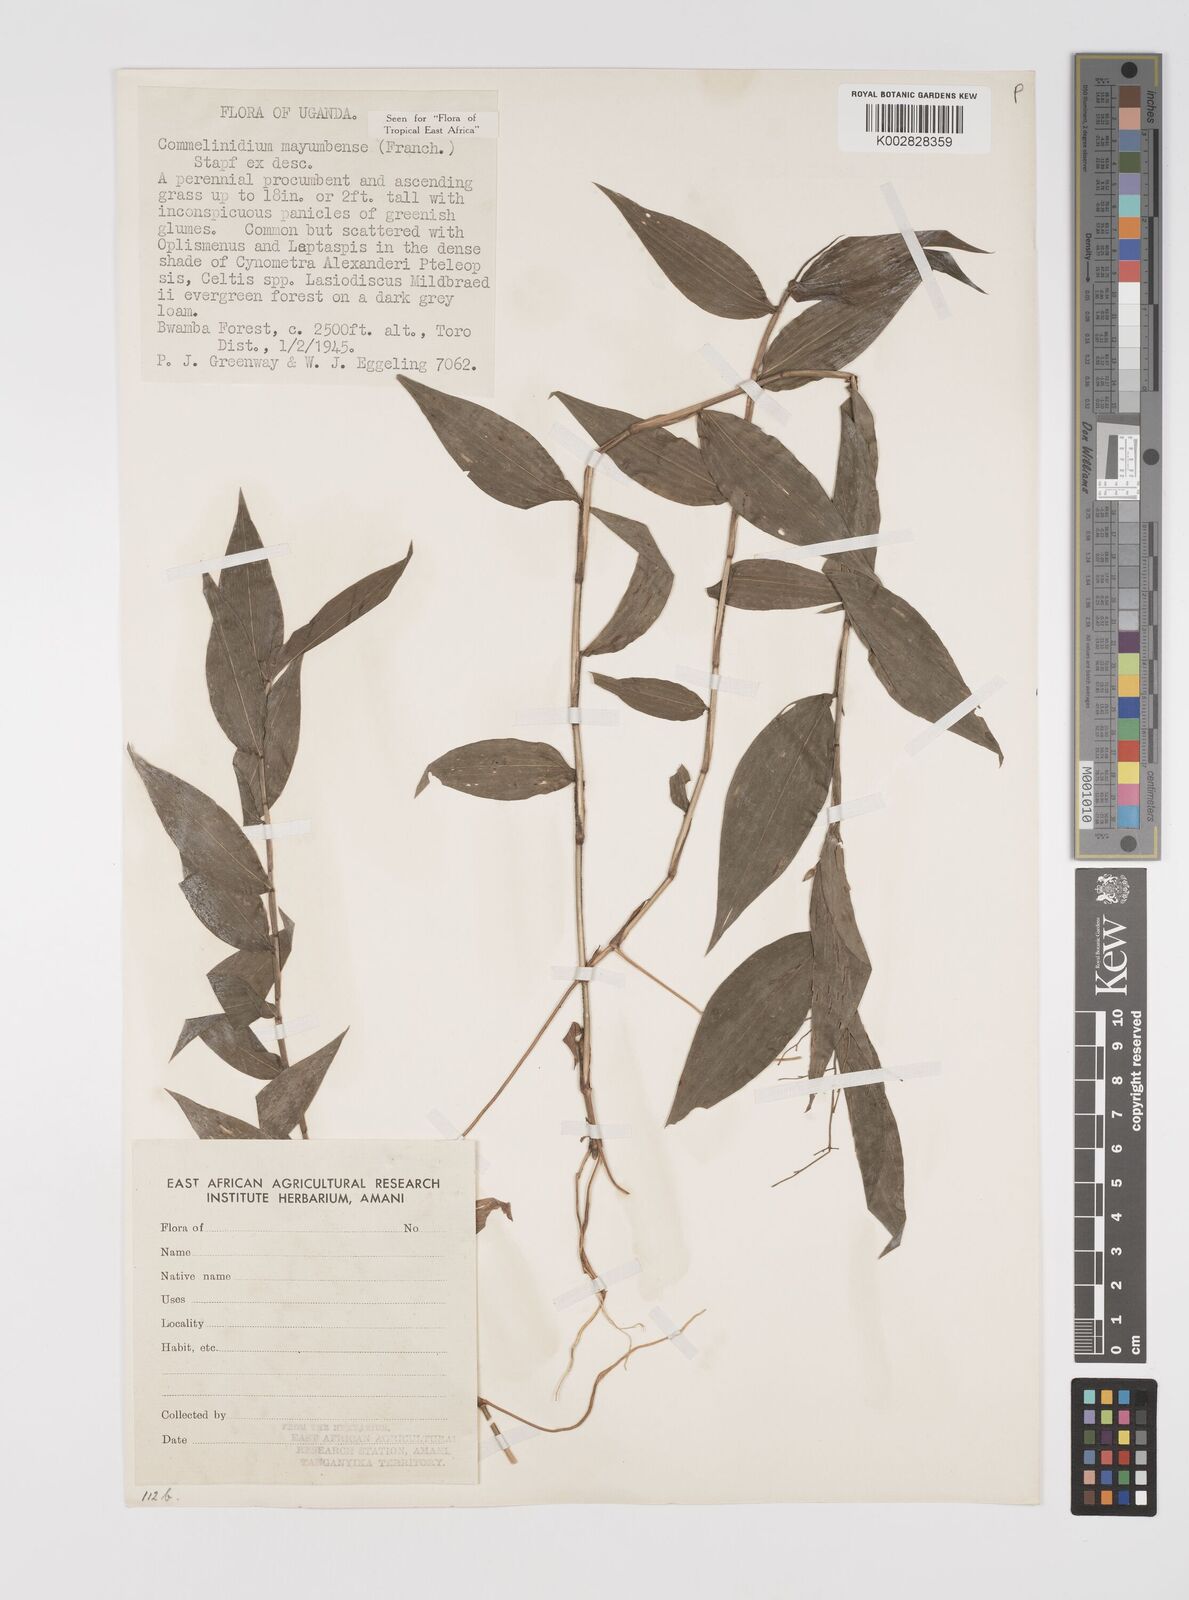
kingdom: Plantae
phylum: Tracheophyta
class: Liliopsida
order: Poales
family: Poaceae
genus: Acroceras
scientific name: Acroceras gabunense
